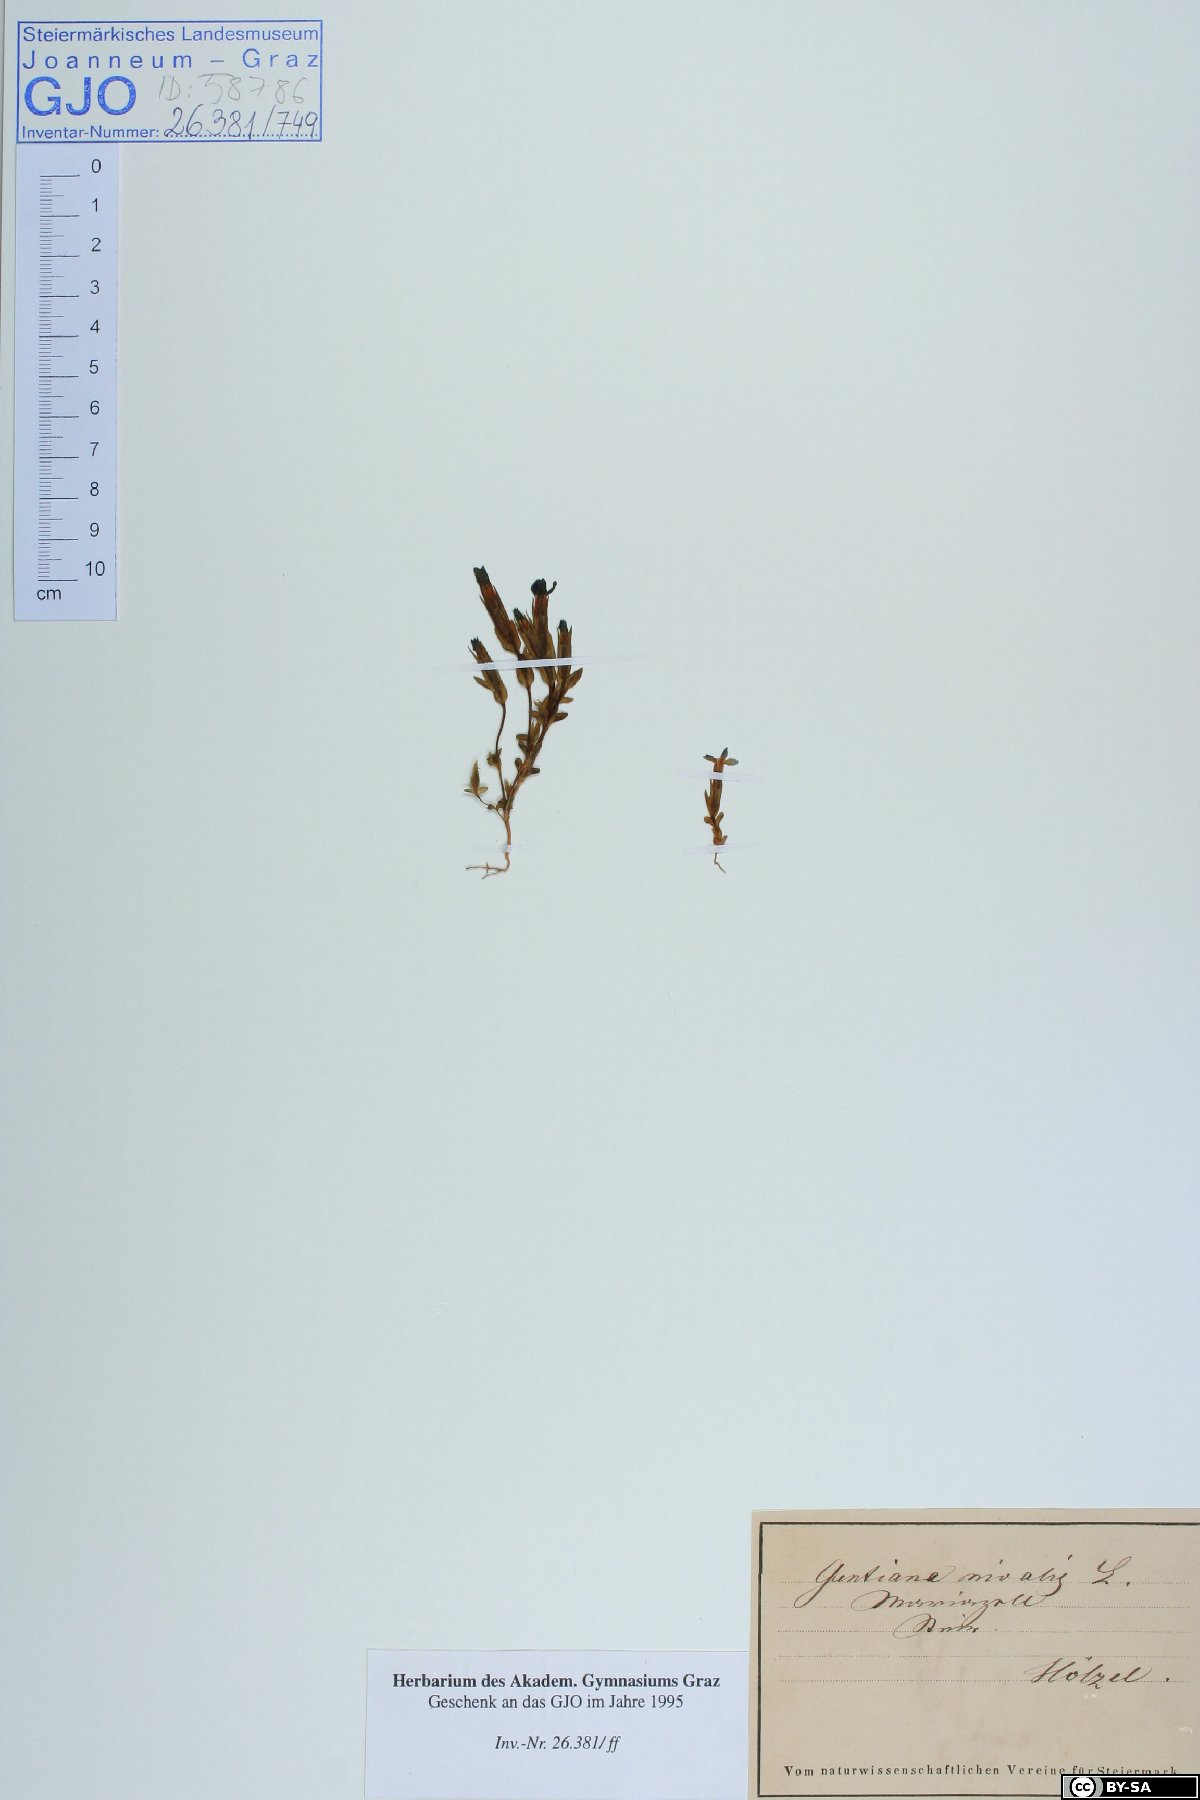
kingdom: Plantae
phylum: Tracheophyta
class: Magnoliopsida
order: Gentianales
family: Gentianaceae
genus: Gentiana
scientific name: Gentiana nivalis
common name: Alpine gentian
